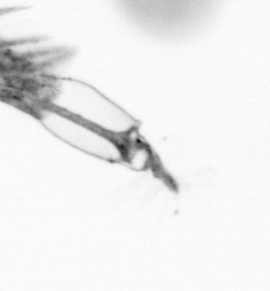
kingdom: Animalia
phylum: Arthropoda
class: Copepoda
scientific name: Copepoda
